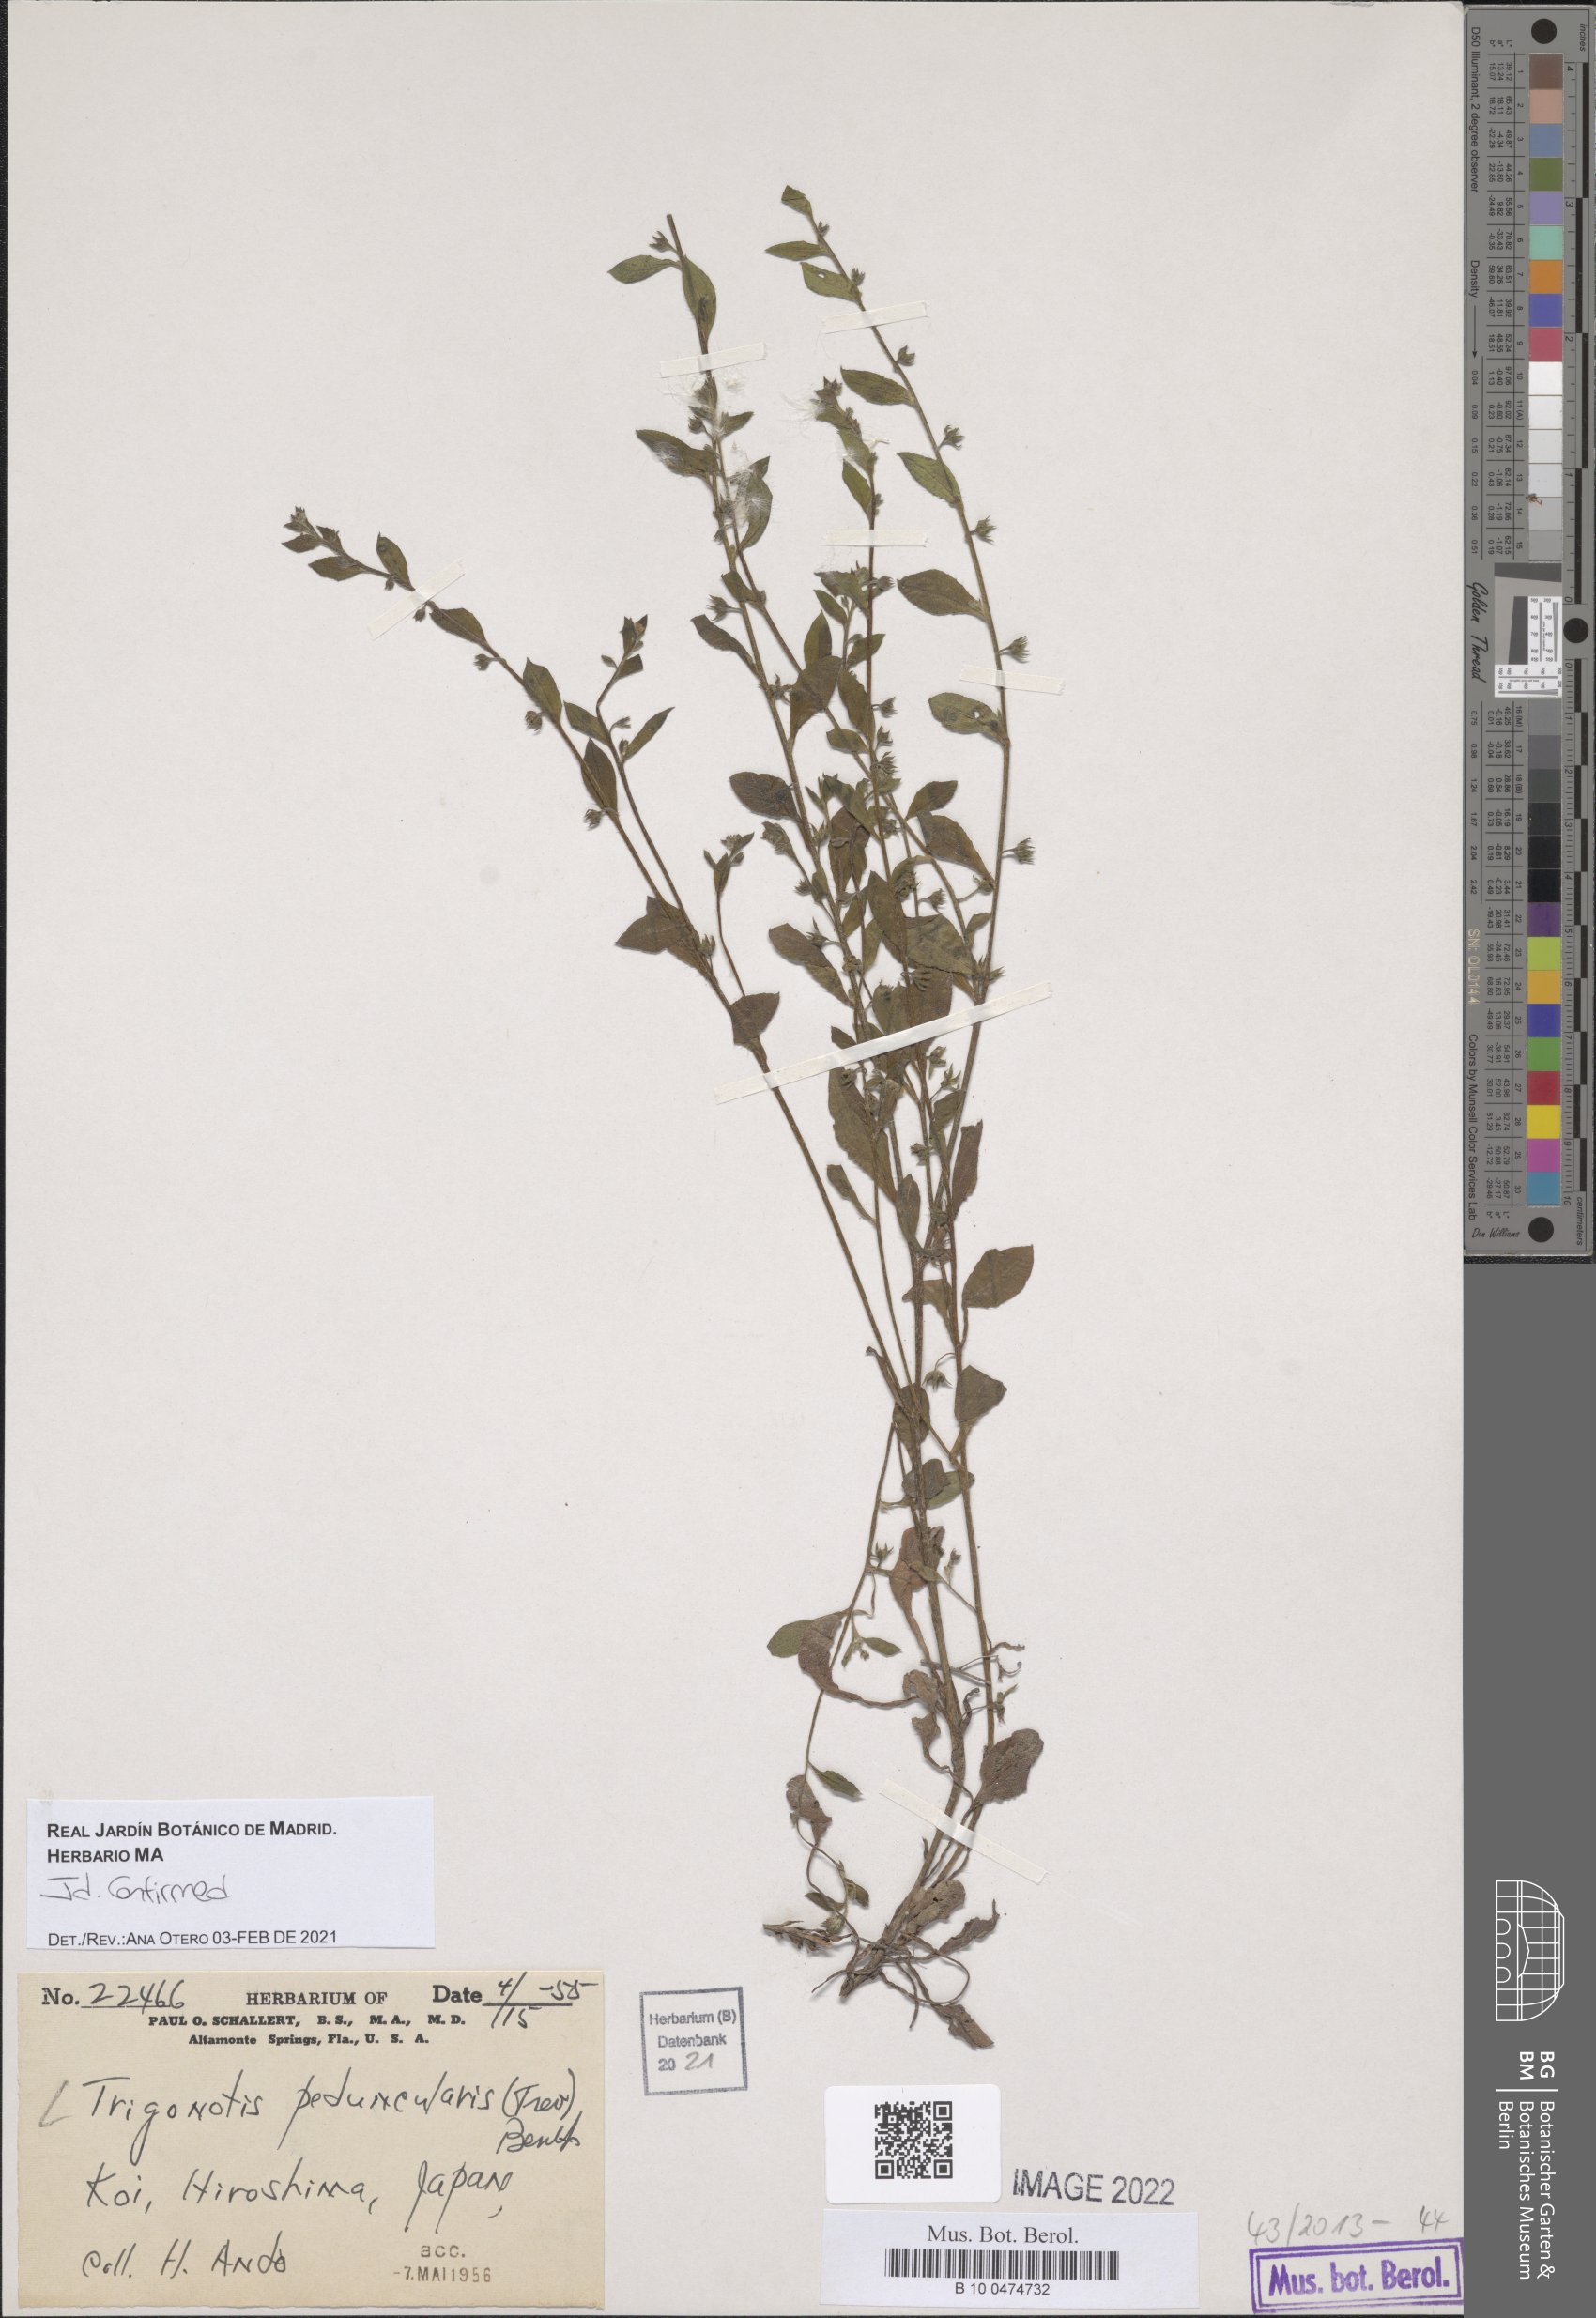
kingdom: Plantae
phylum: Tracheophyta
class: Magnoliopsida
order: Boraginales
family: Boraginaceae
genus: Trigonotis
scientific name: Trigonotis peduncularis
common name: Cucumber herb
